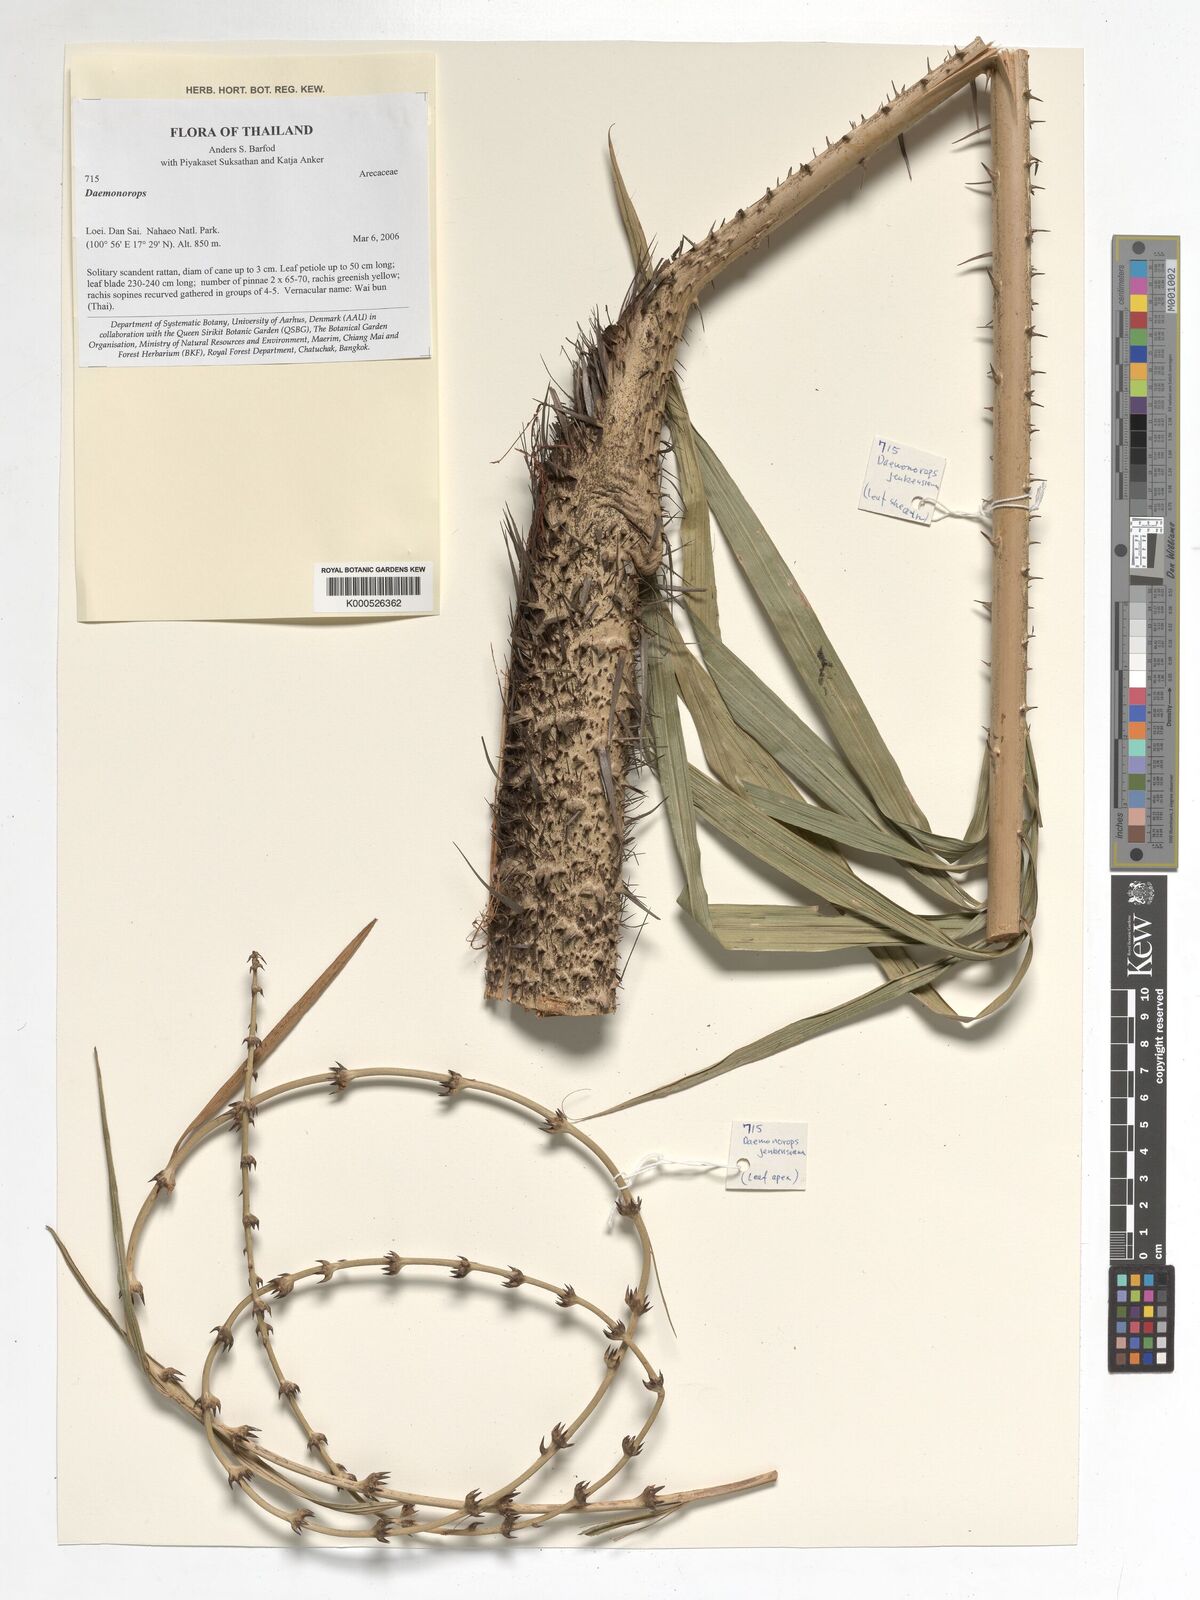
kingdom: Plantae
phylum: Tracheophyta
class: Liliopsida
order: Arecales
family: Arecaceae
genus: Daemonorops
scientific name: Daemonorops
